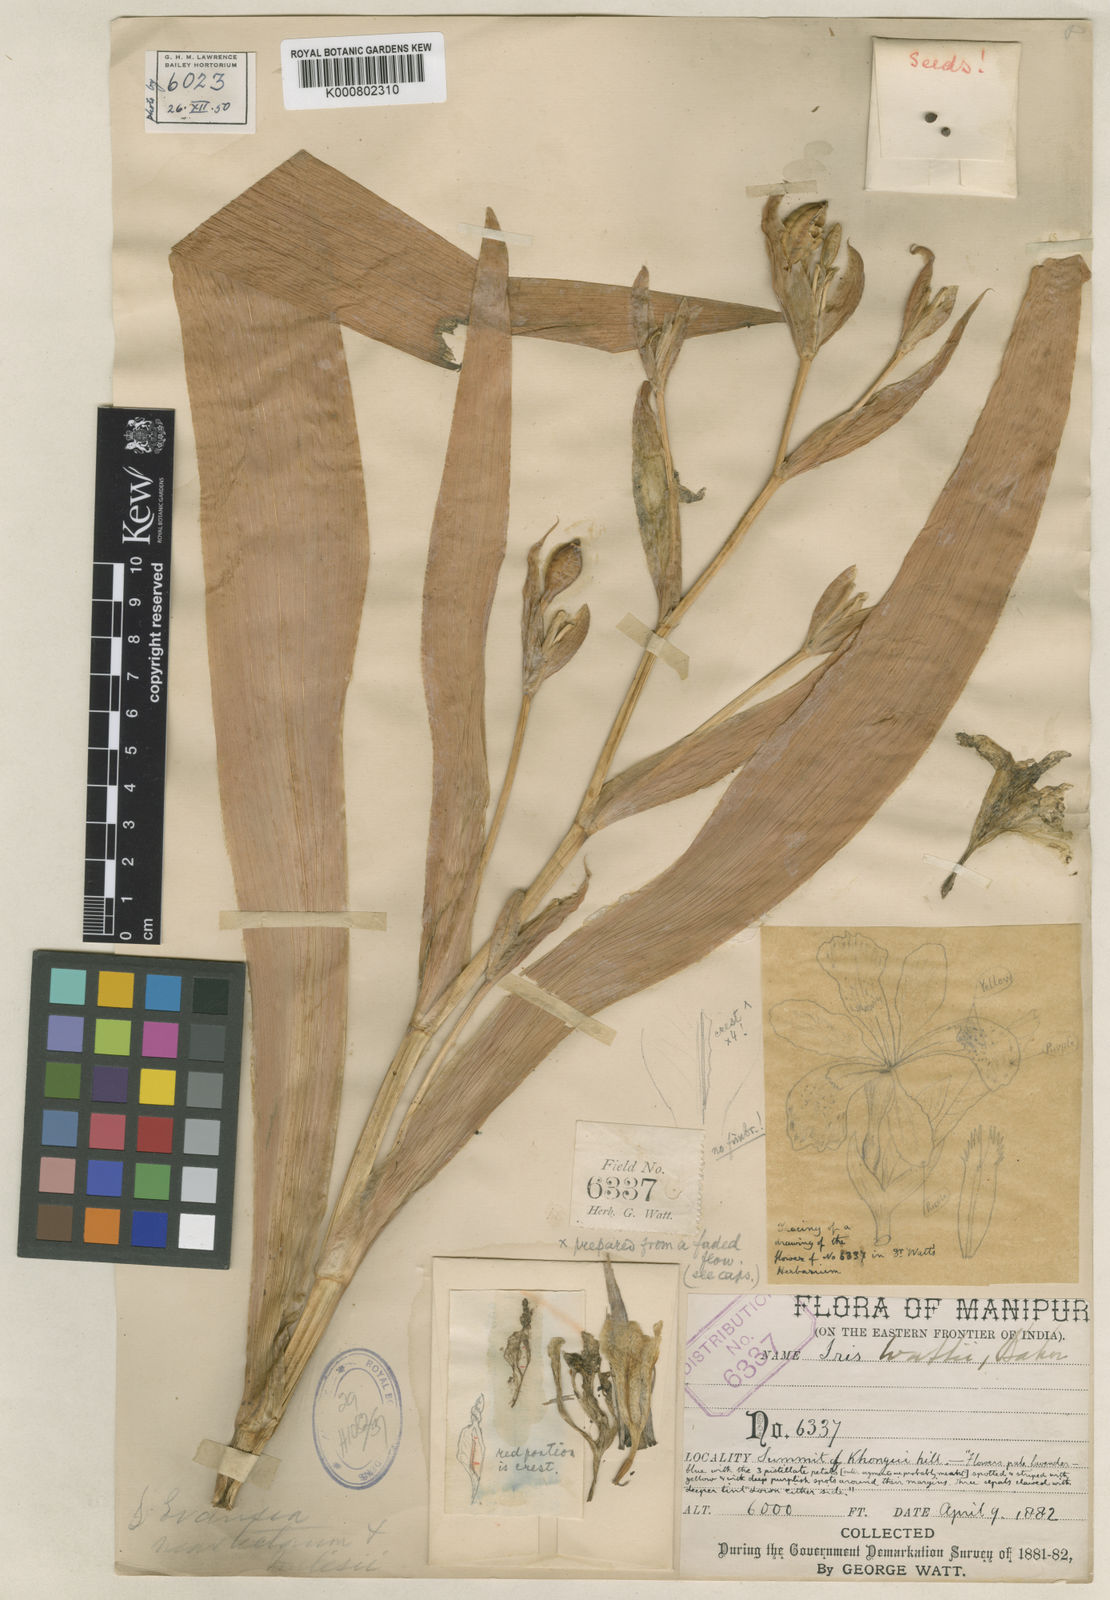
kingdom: Plantae
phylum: Tracheophyta
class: Liliopsida
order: Asparagales
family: Iridaceae
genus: Iris
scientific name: Iris wattii
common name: Fan-shape iris
